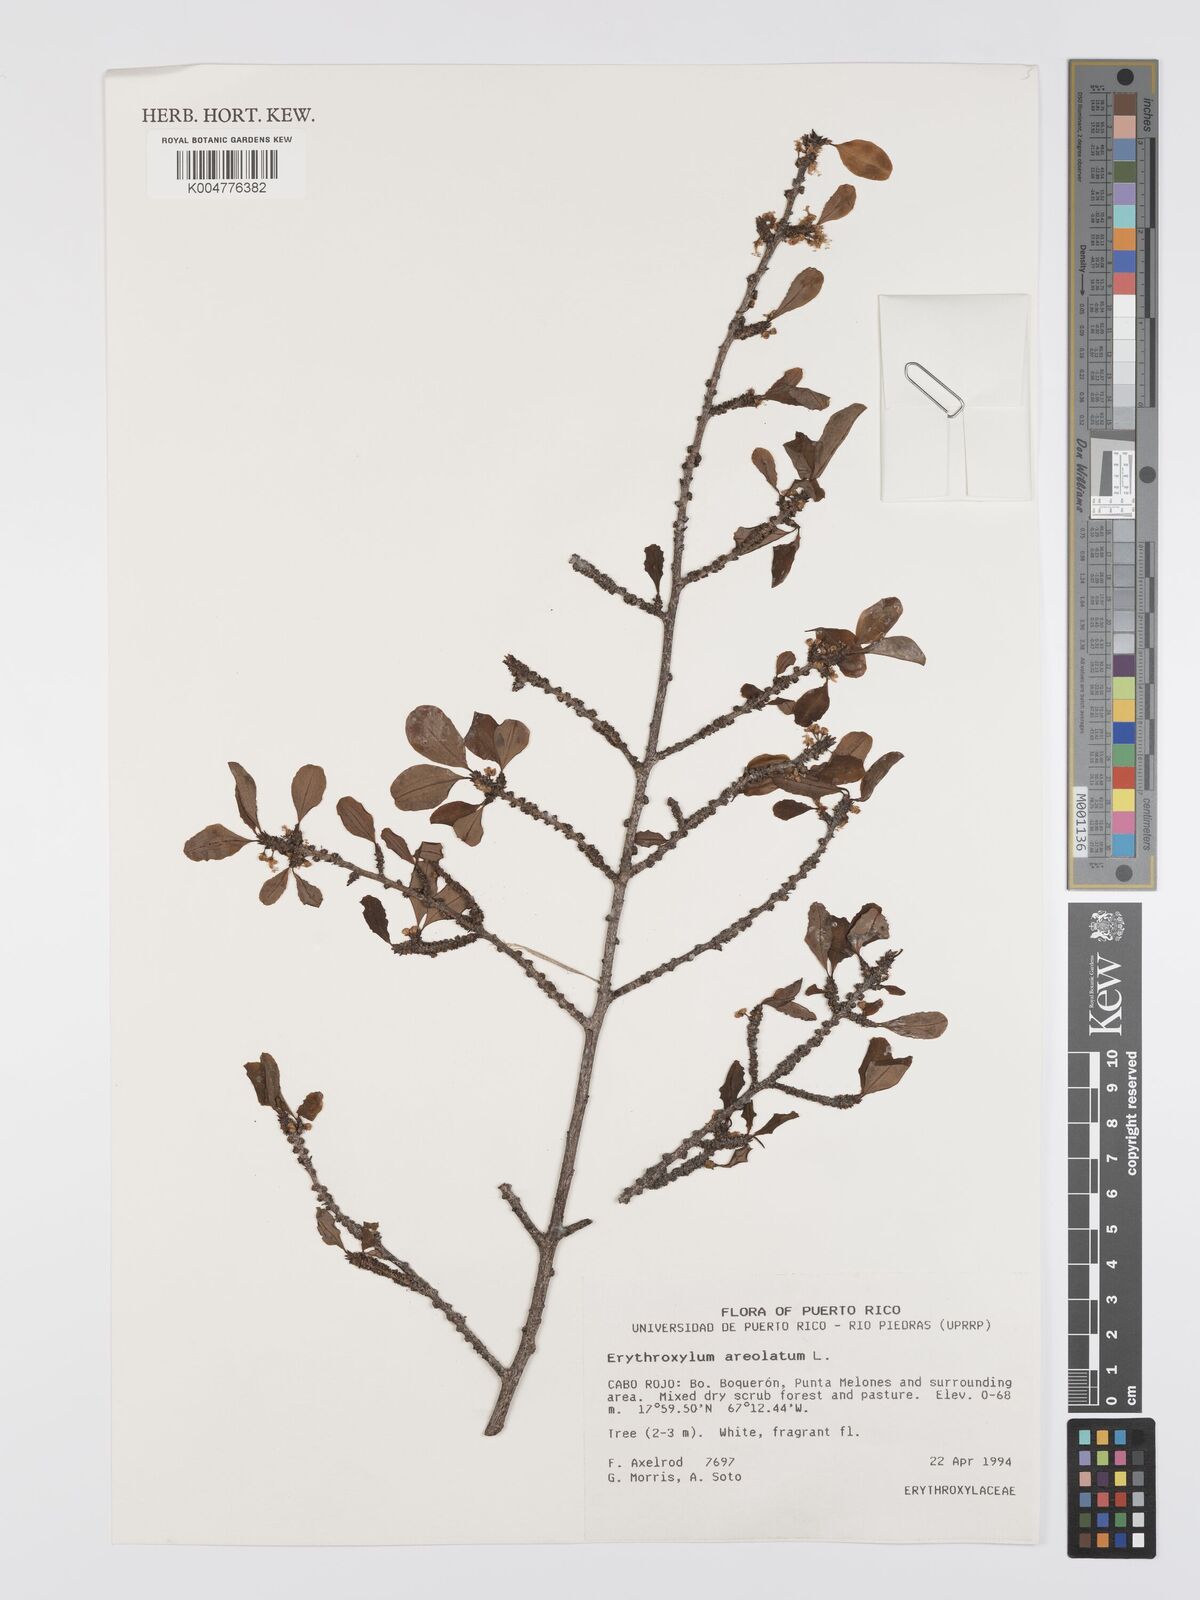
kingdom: Plantae
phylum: Tracheophyta
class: Magnoliopsida
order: Malpighiales
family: Erythroxylaceae
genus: Erythroxylum
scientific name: Erythroxylum areolatum
